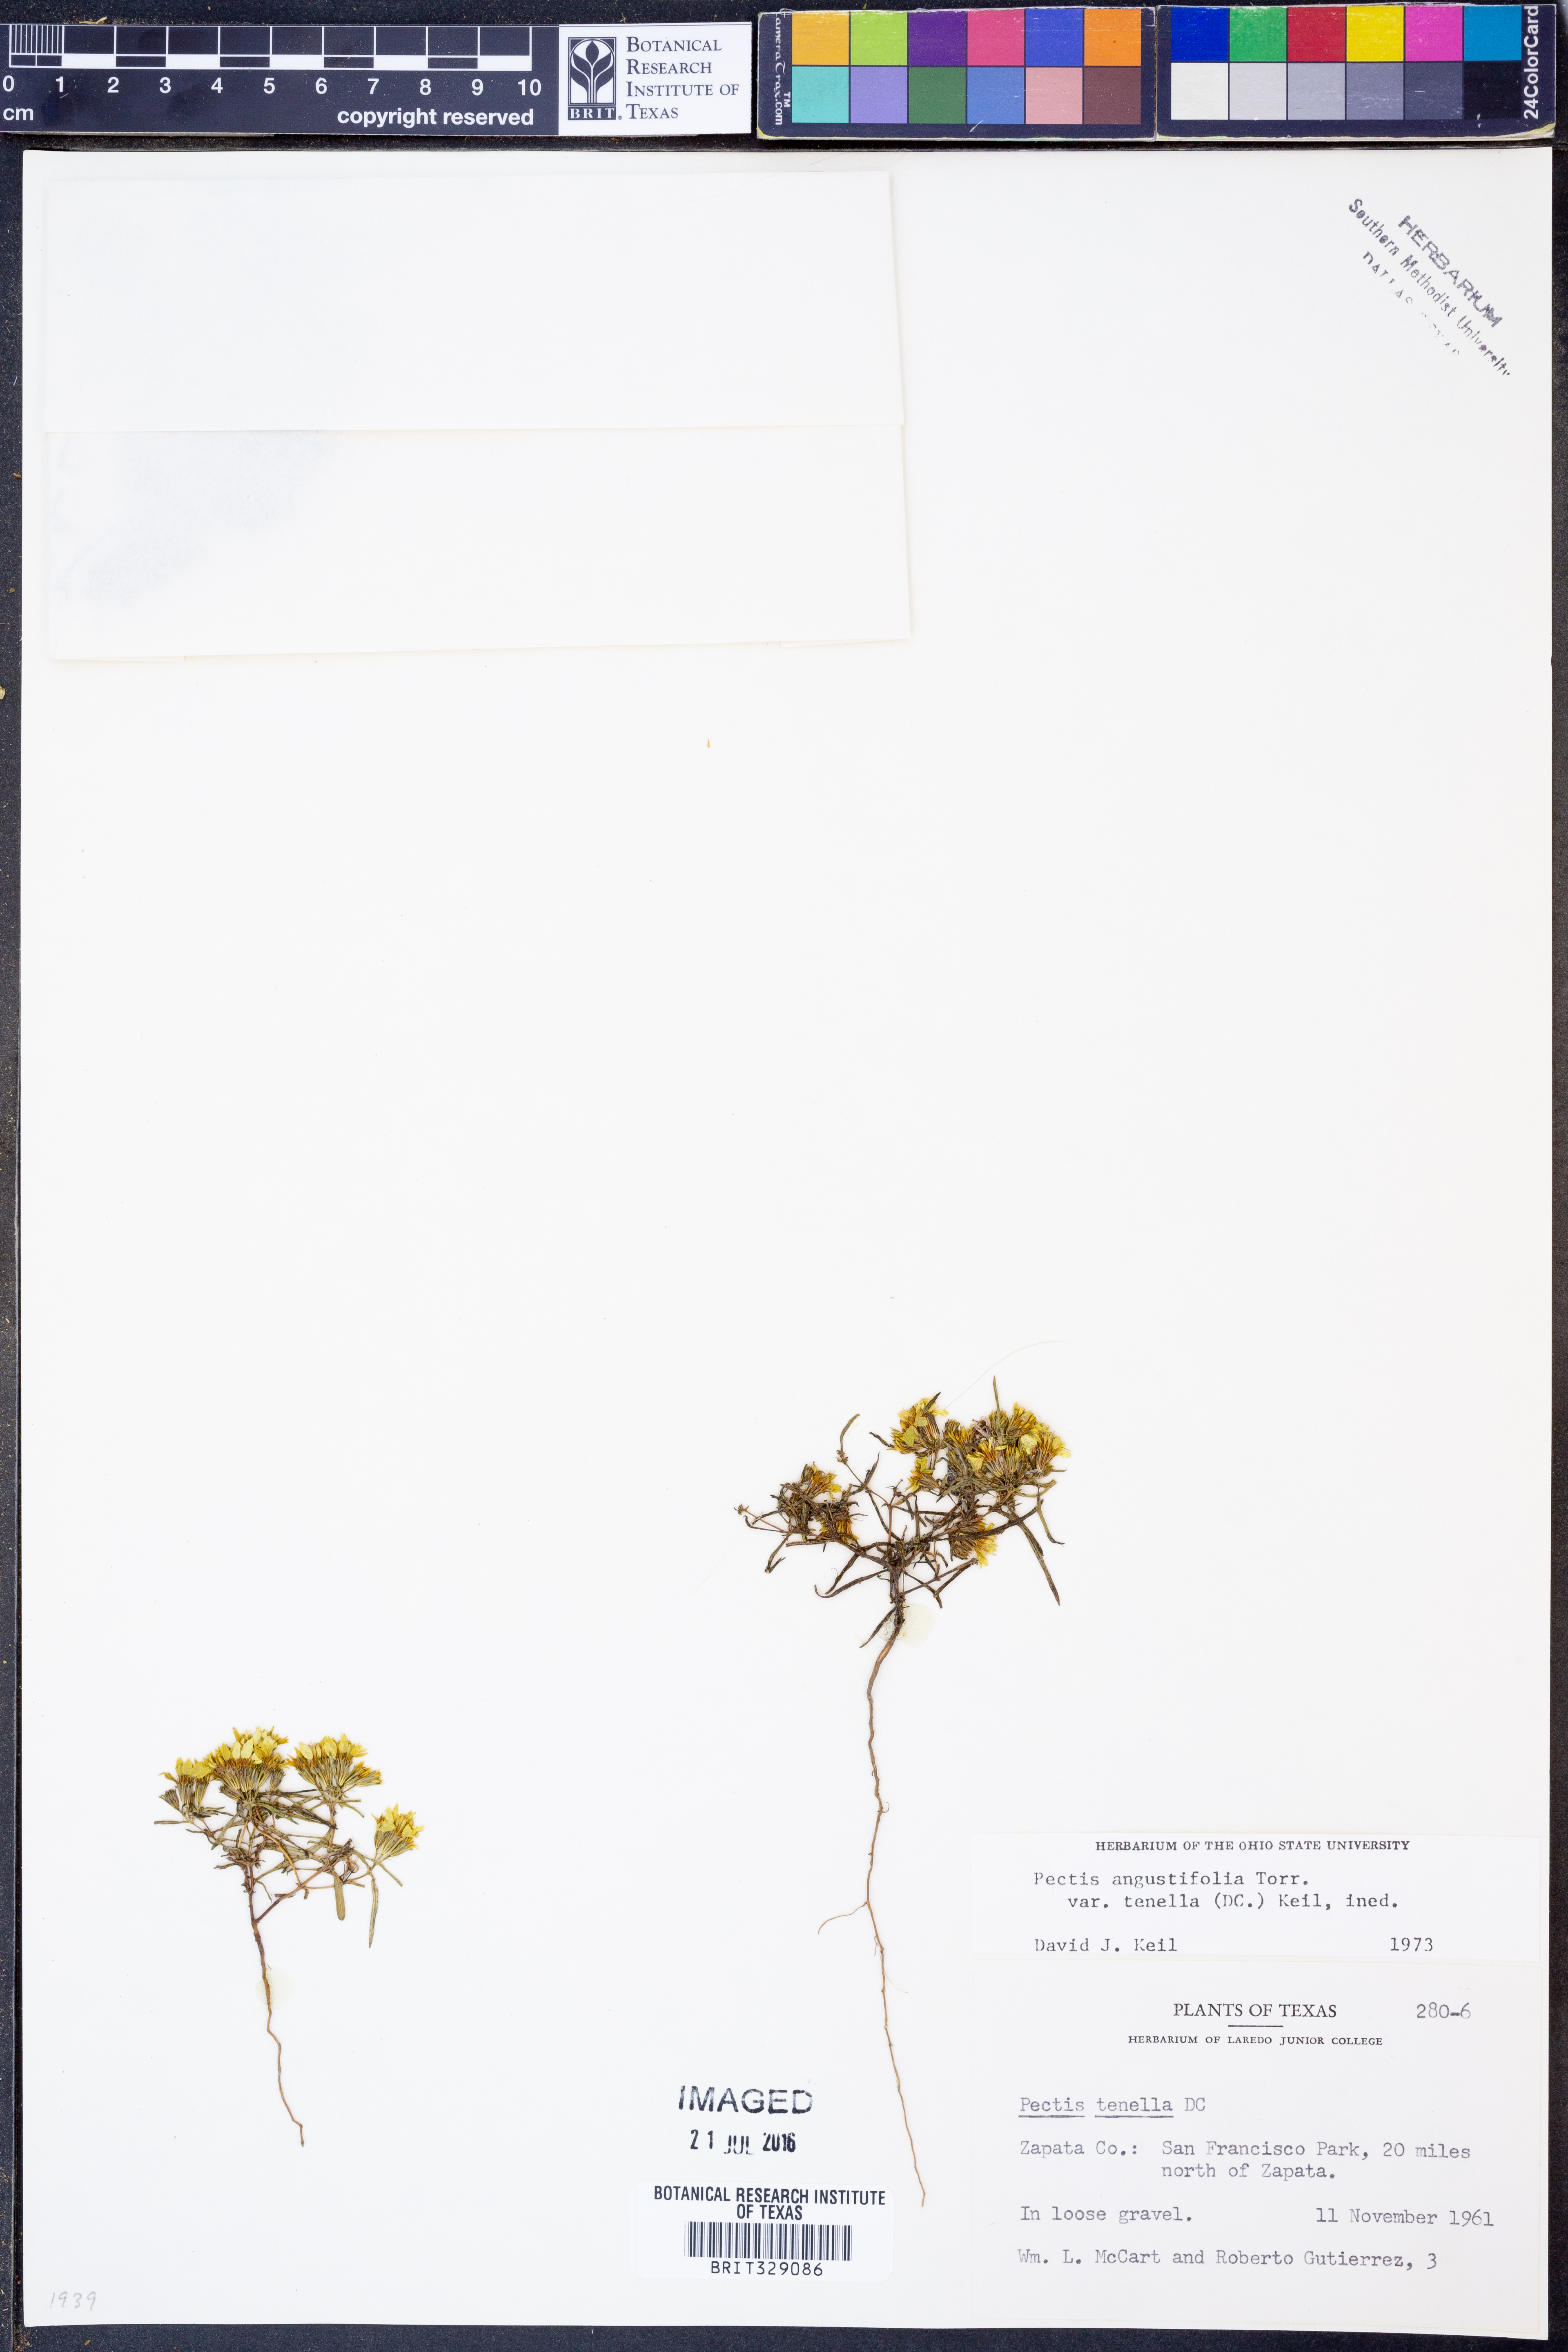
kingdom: Plantae
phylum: Tracheophyta
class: Magnoliopsida
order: Asterales
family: Asteraceae
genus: Pectis
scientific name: Pectis angustifolia
